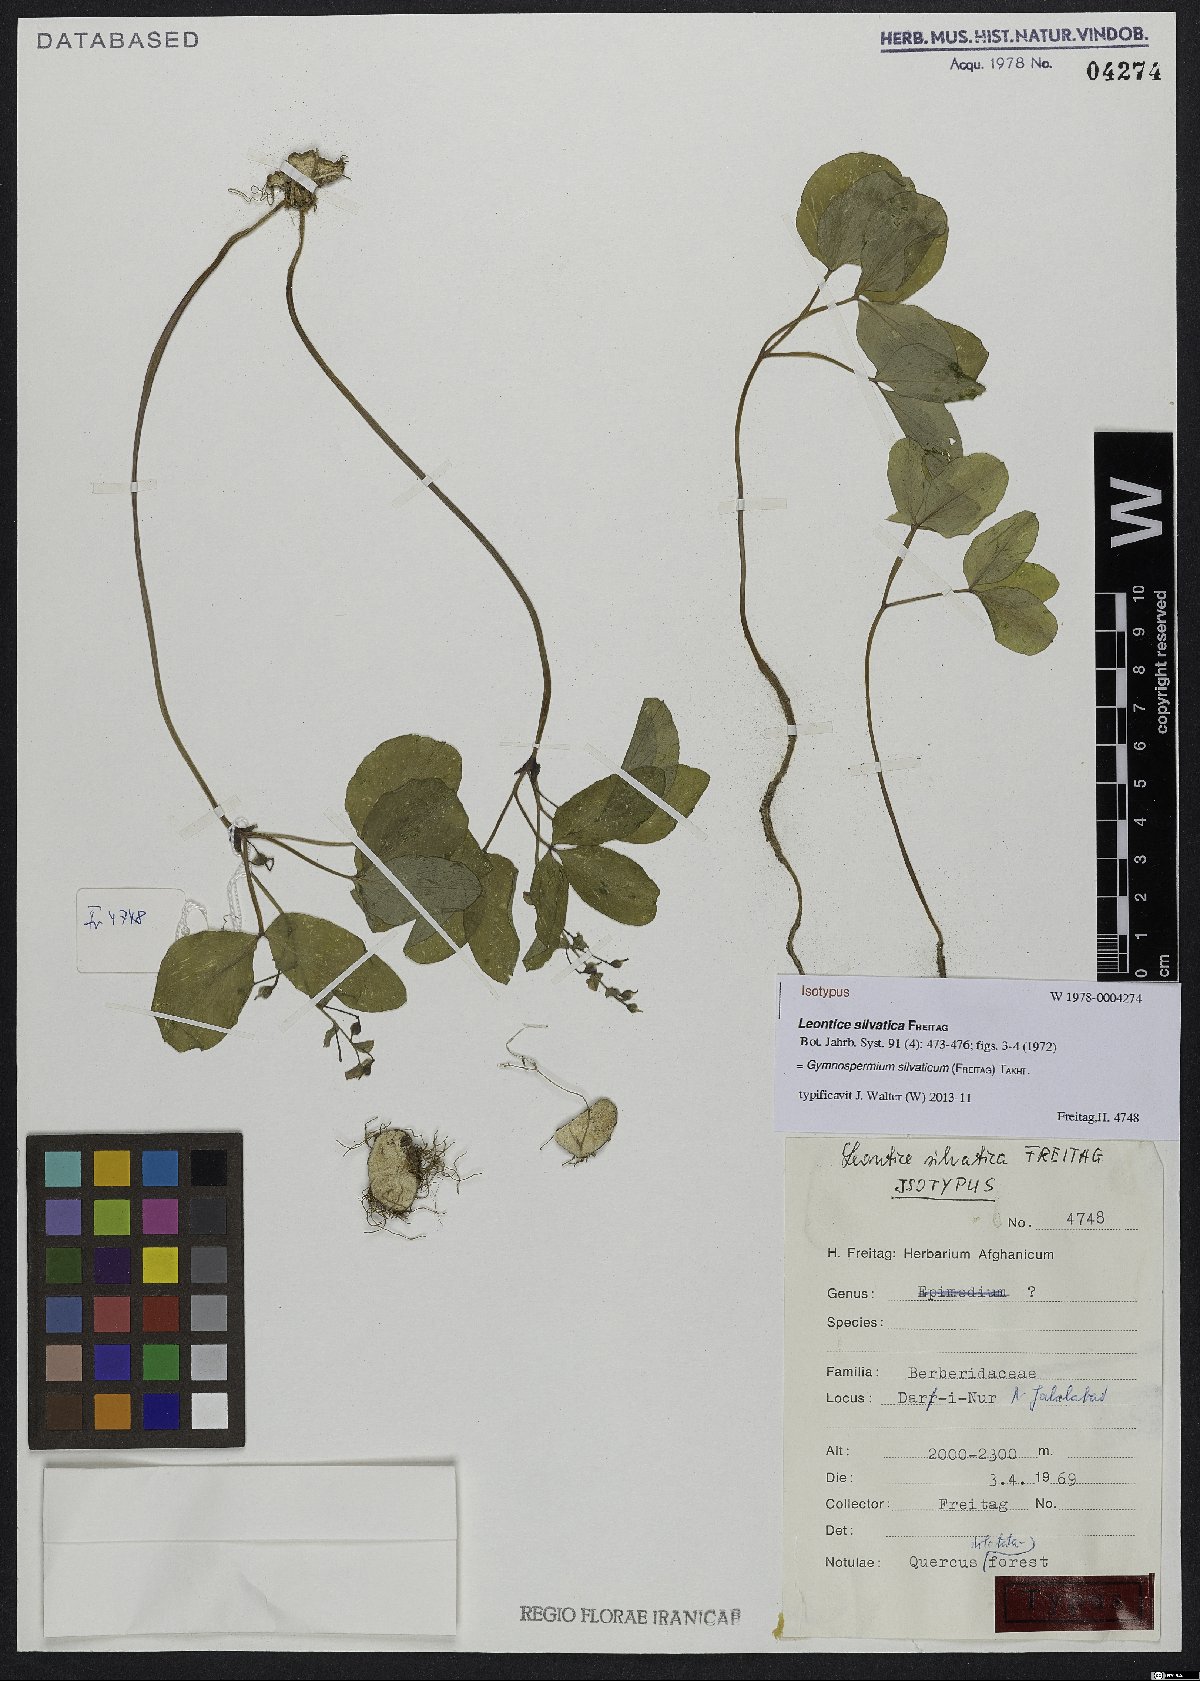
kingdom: Plantae
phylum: Tracheophyta
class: Magnoliopsida
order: Ranunculales
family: Berberidaceae
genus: Gymnospermium
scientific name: Gymnospermium silvaticum
